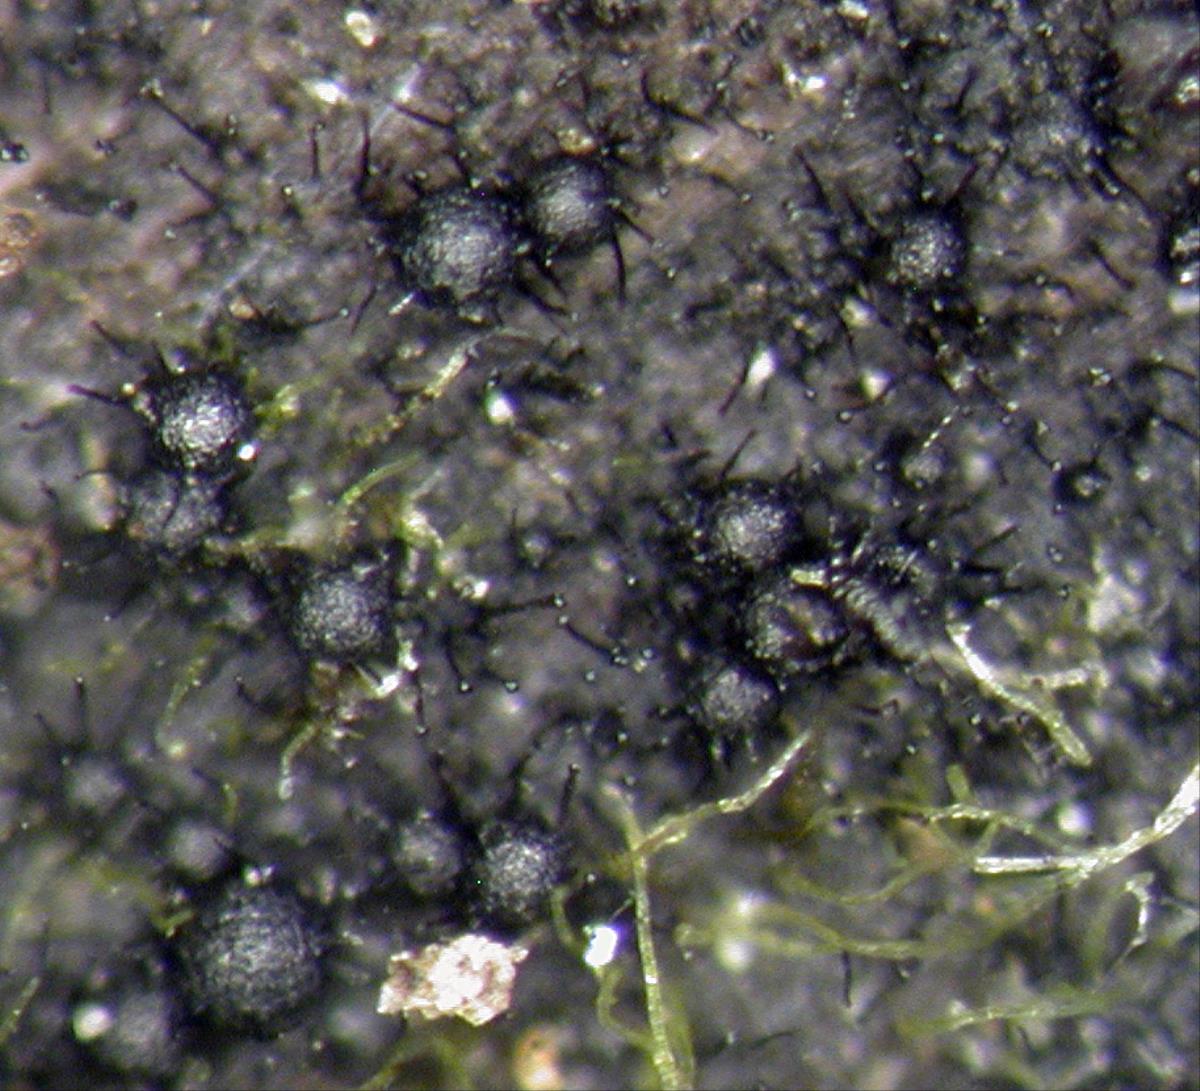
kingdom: Fungi
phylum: Ascomycota
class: Sordariomycetes
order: Chaetosphaeriales
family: Chaetosphaeriaceae
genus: Catenularia
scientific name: Catenularia novae-zelandiae
